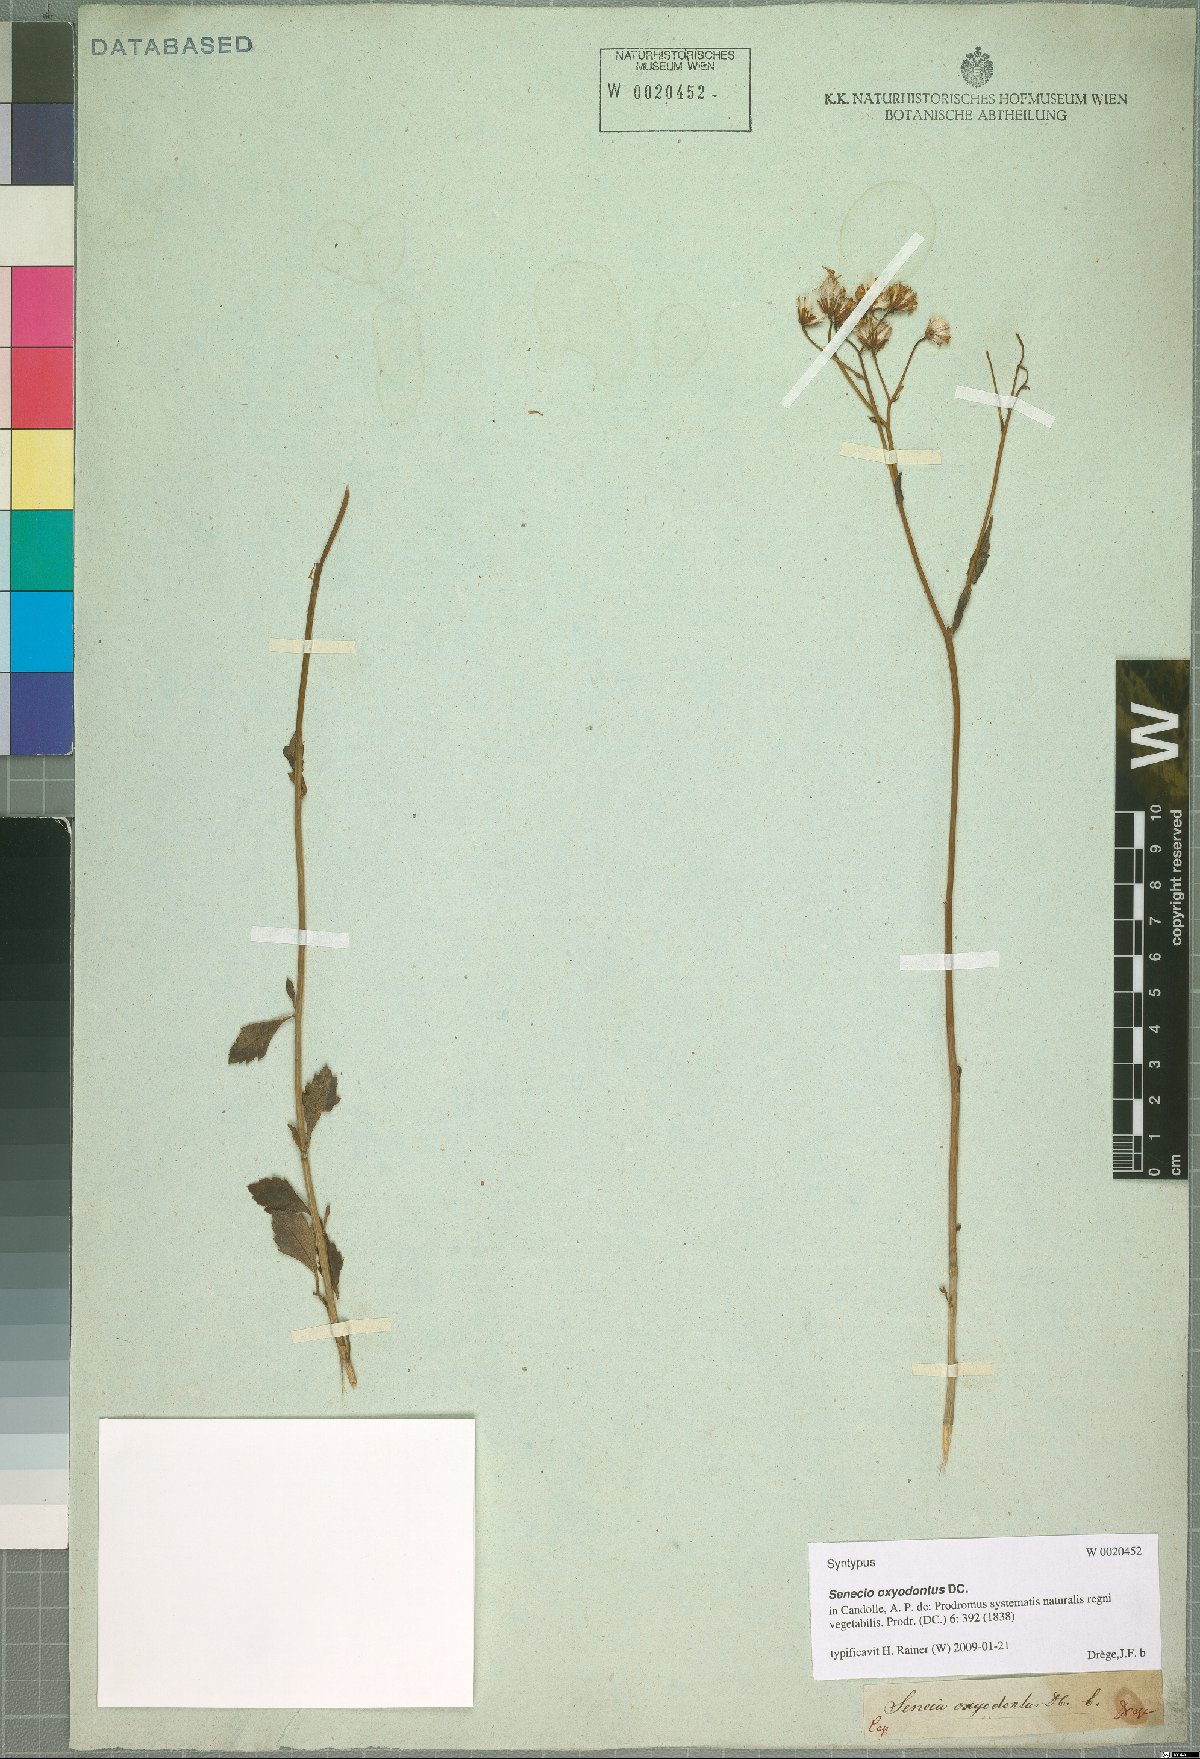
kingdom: Plantae
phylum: Tracheophyta
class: Magnoliopsida
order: Asterales
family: Asteraceae
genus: Senecio
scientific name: Senecio oxyodontus
